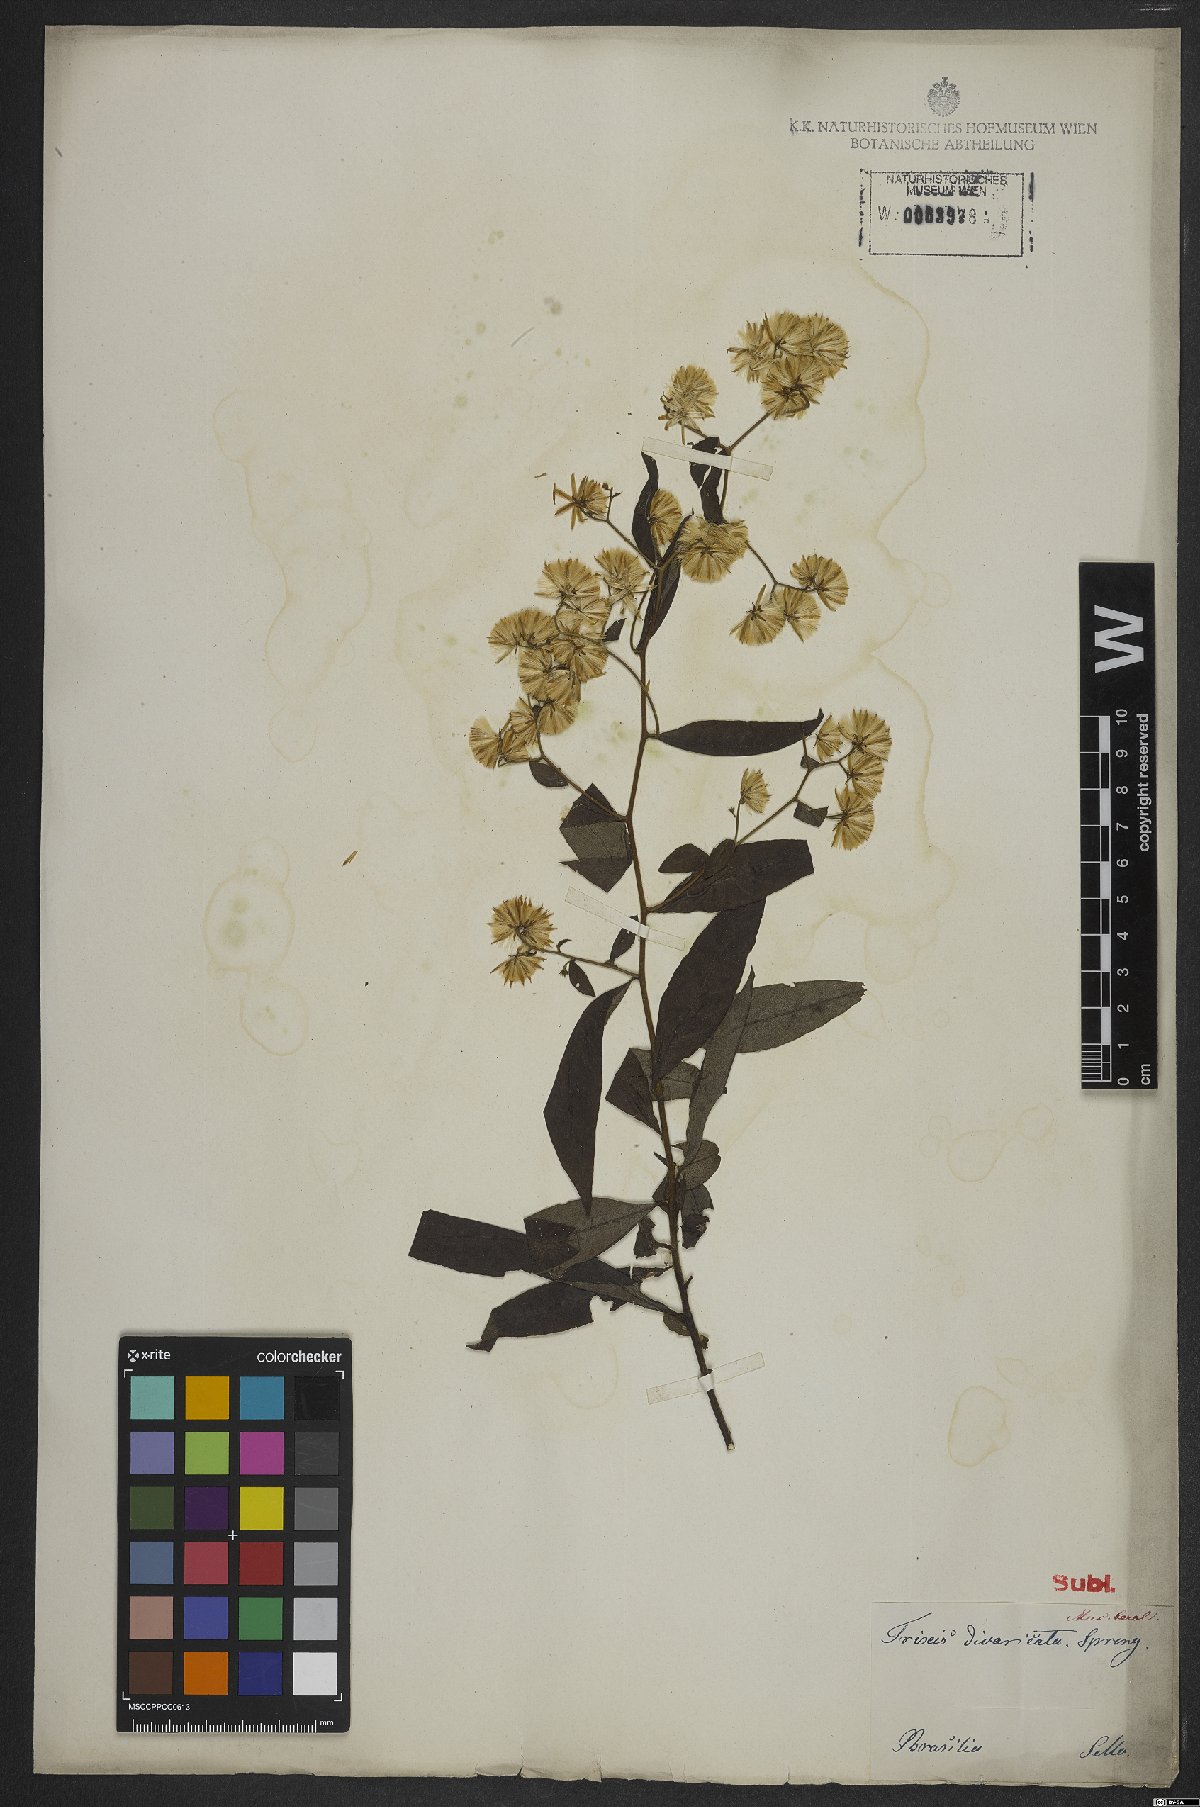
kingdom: Plantae
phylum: Tracheophyta
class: Magnoliopsida
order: Asterales
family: Asteraceae
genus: Trixis
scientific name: Trixis divaricata
